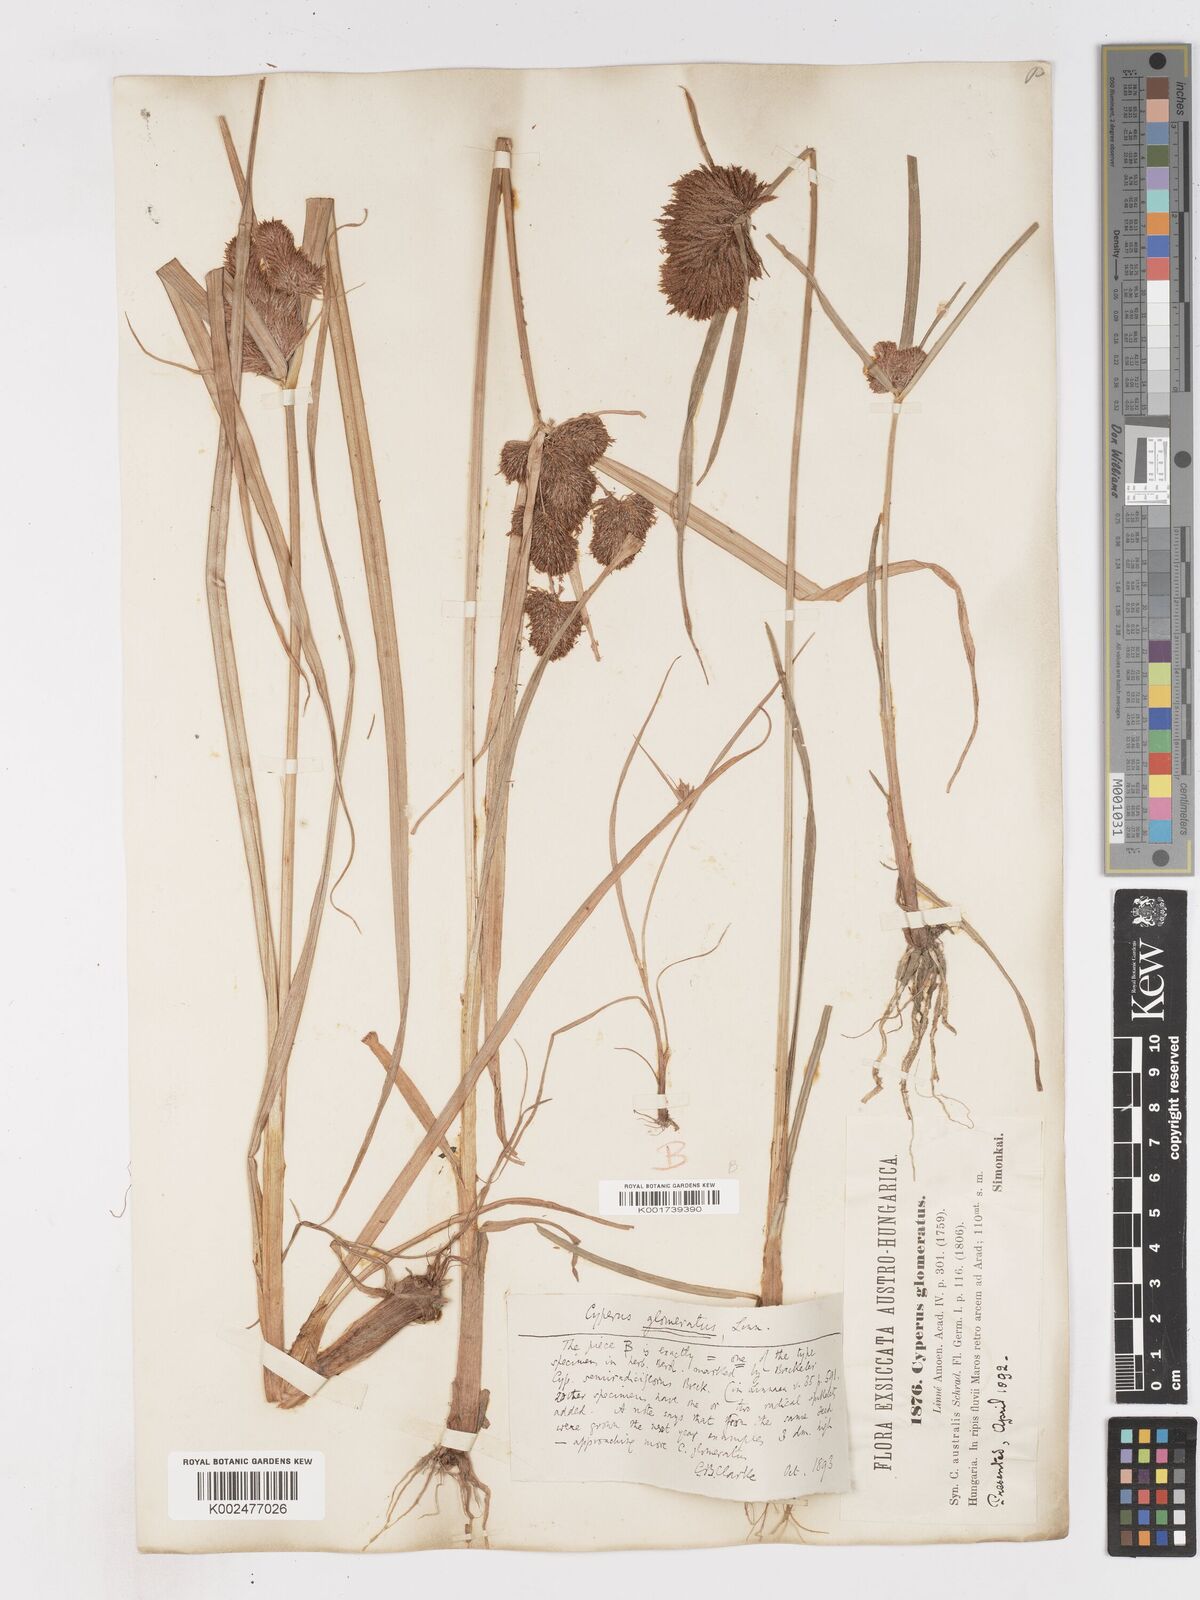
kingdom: Plantae
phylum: Tracheophyta
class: Liliopsida
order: Poales
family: Cyperaceae
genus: Cyperus
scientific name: Cyperus glomeratus
